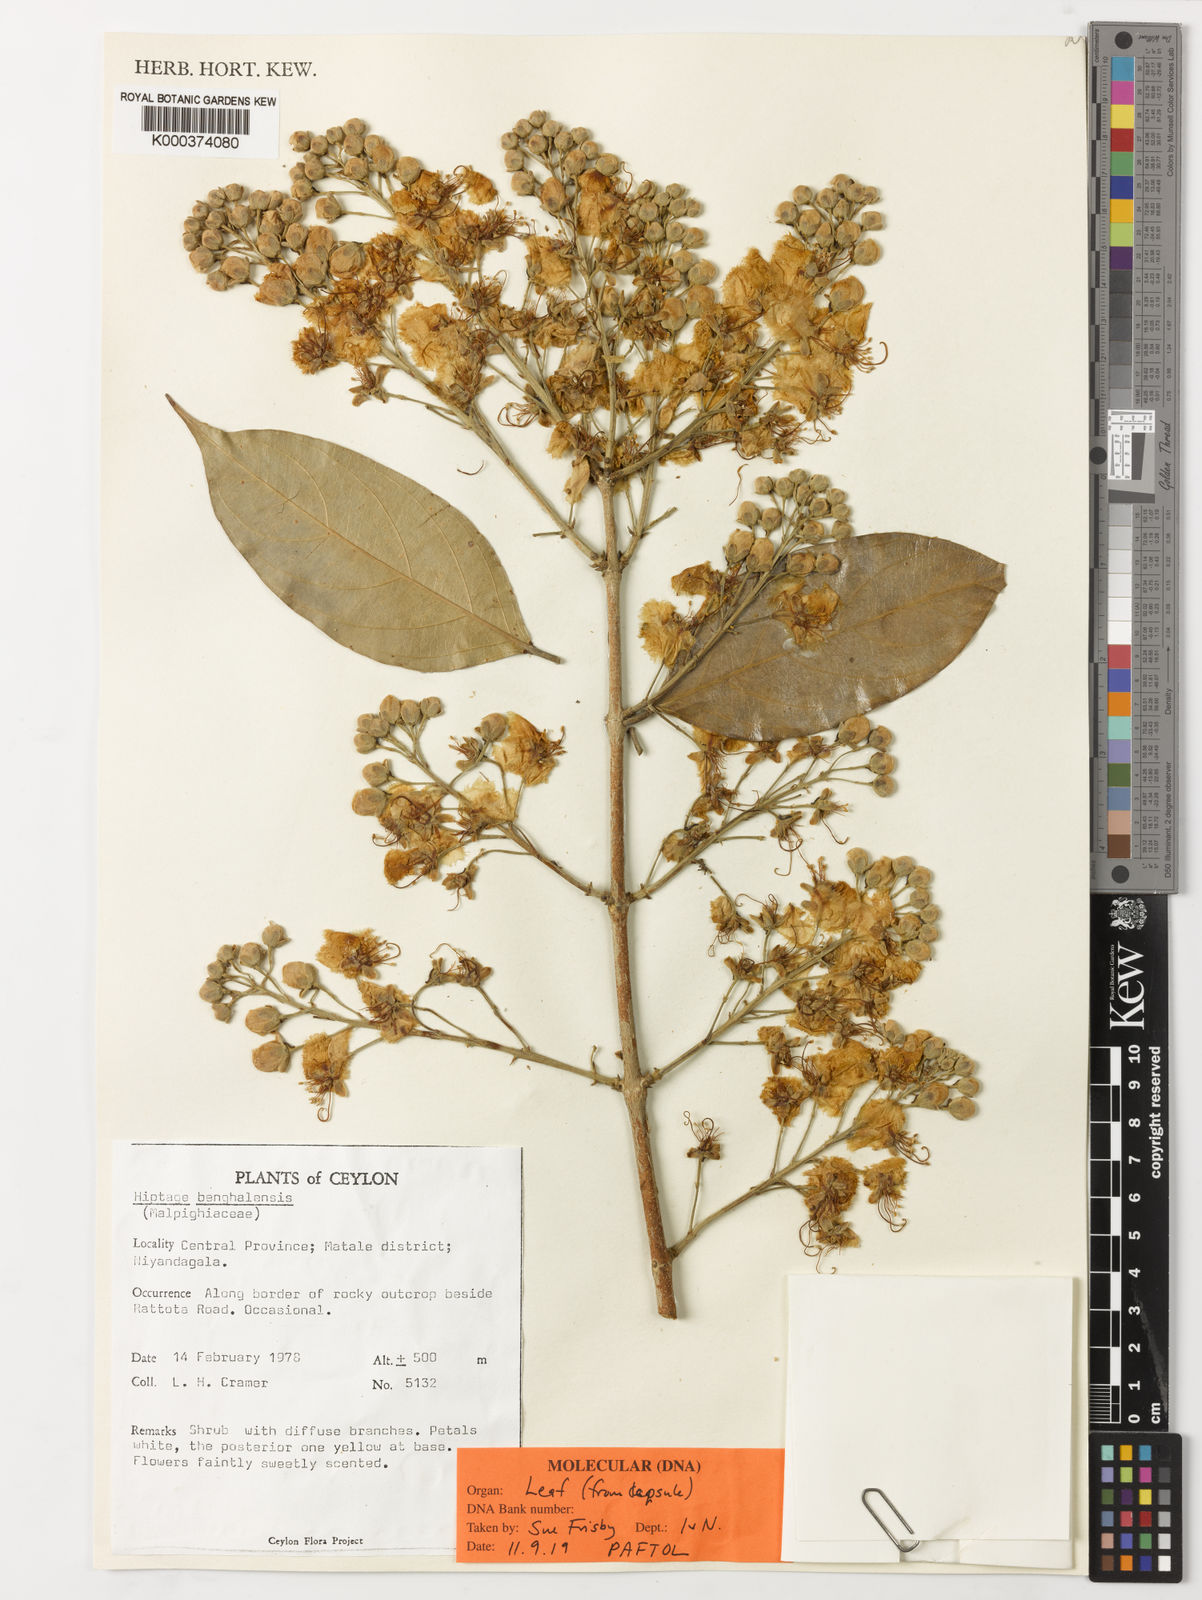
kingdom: Plantae
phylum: Tracheophyta
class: Magnoliopsida
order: Malpighiales
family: Malpighiaceae
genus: Hiptage
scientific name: Hiptage benghalensis
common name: Hiptage
